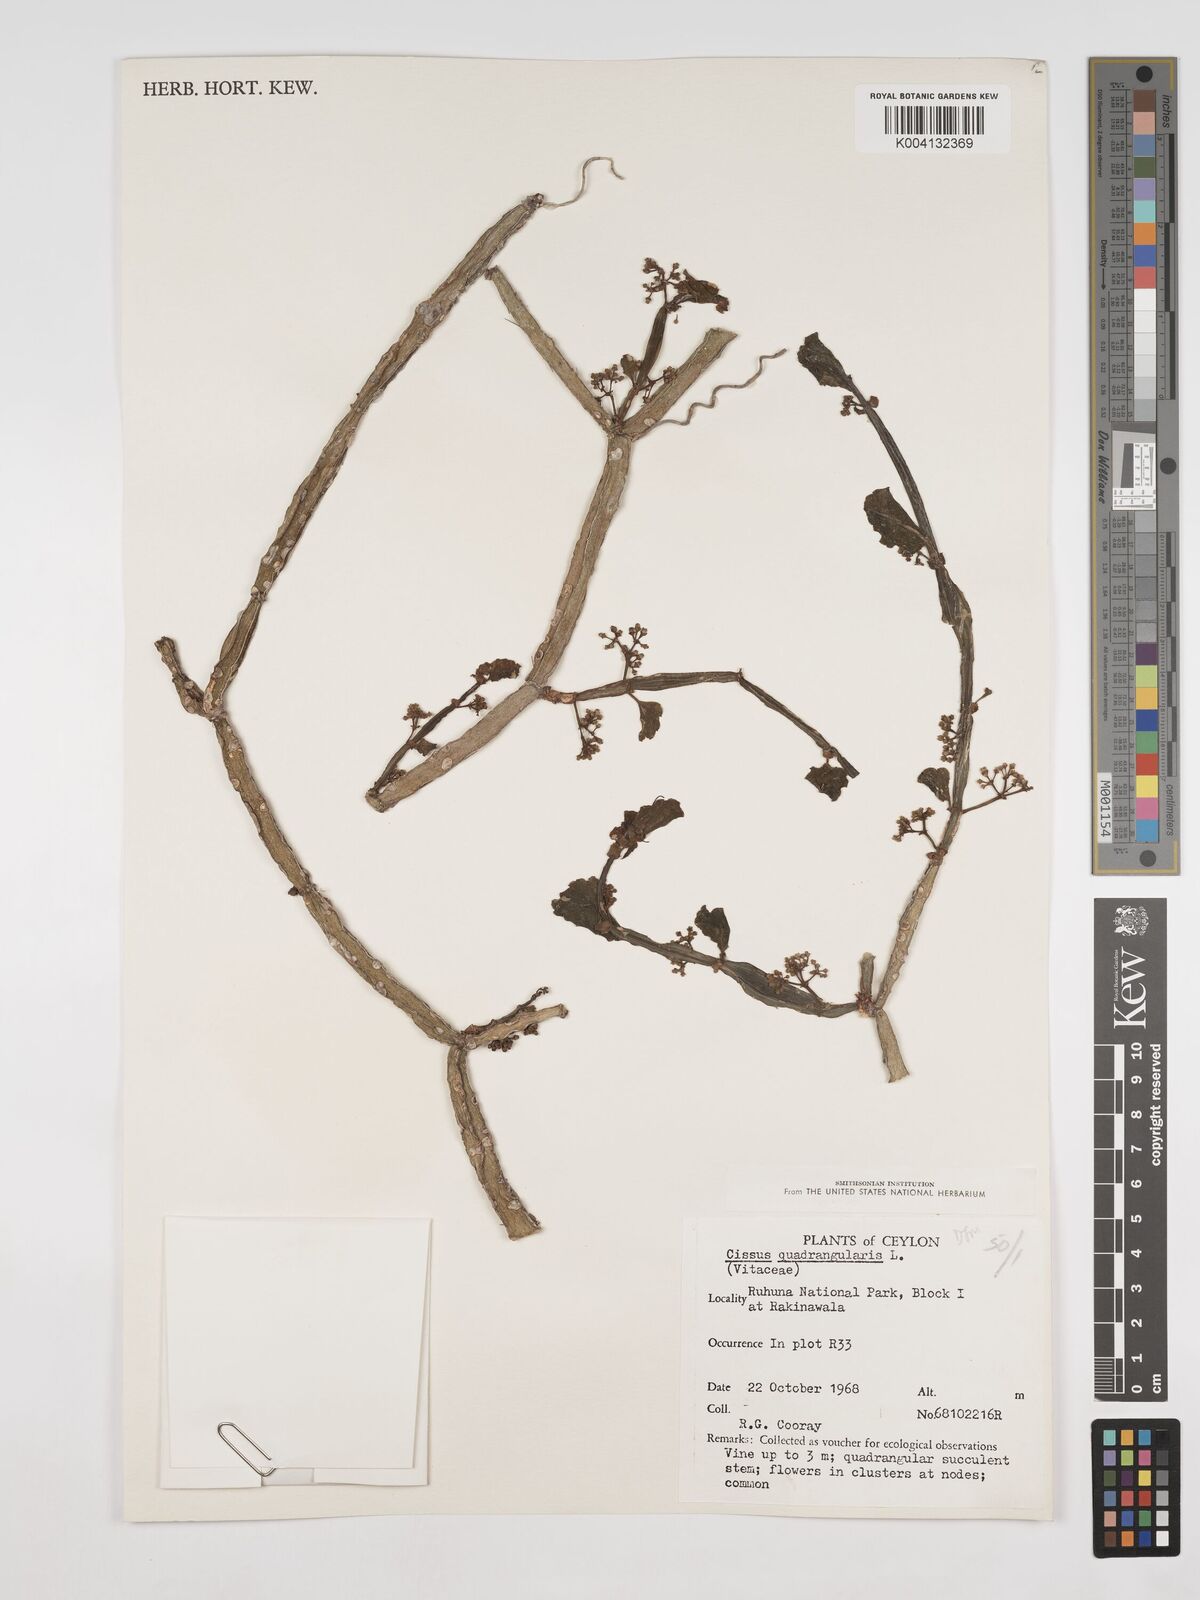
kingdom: Plantae
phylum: Tracheophyta
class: Magnoliopsida
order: Vitales
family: Vitaceae
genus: Cissus
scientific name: Cissus quadrangularis
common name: Veldt-grape
